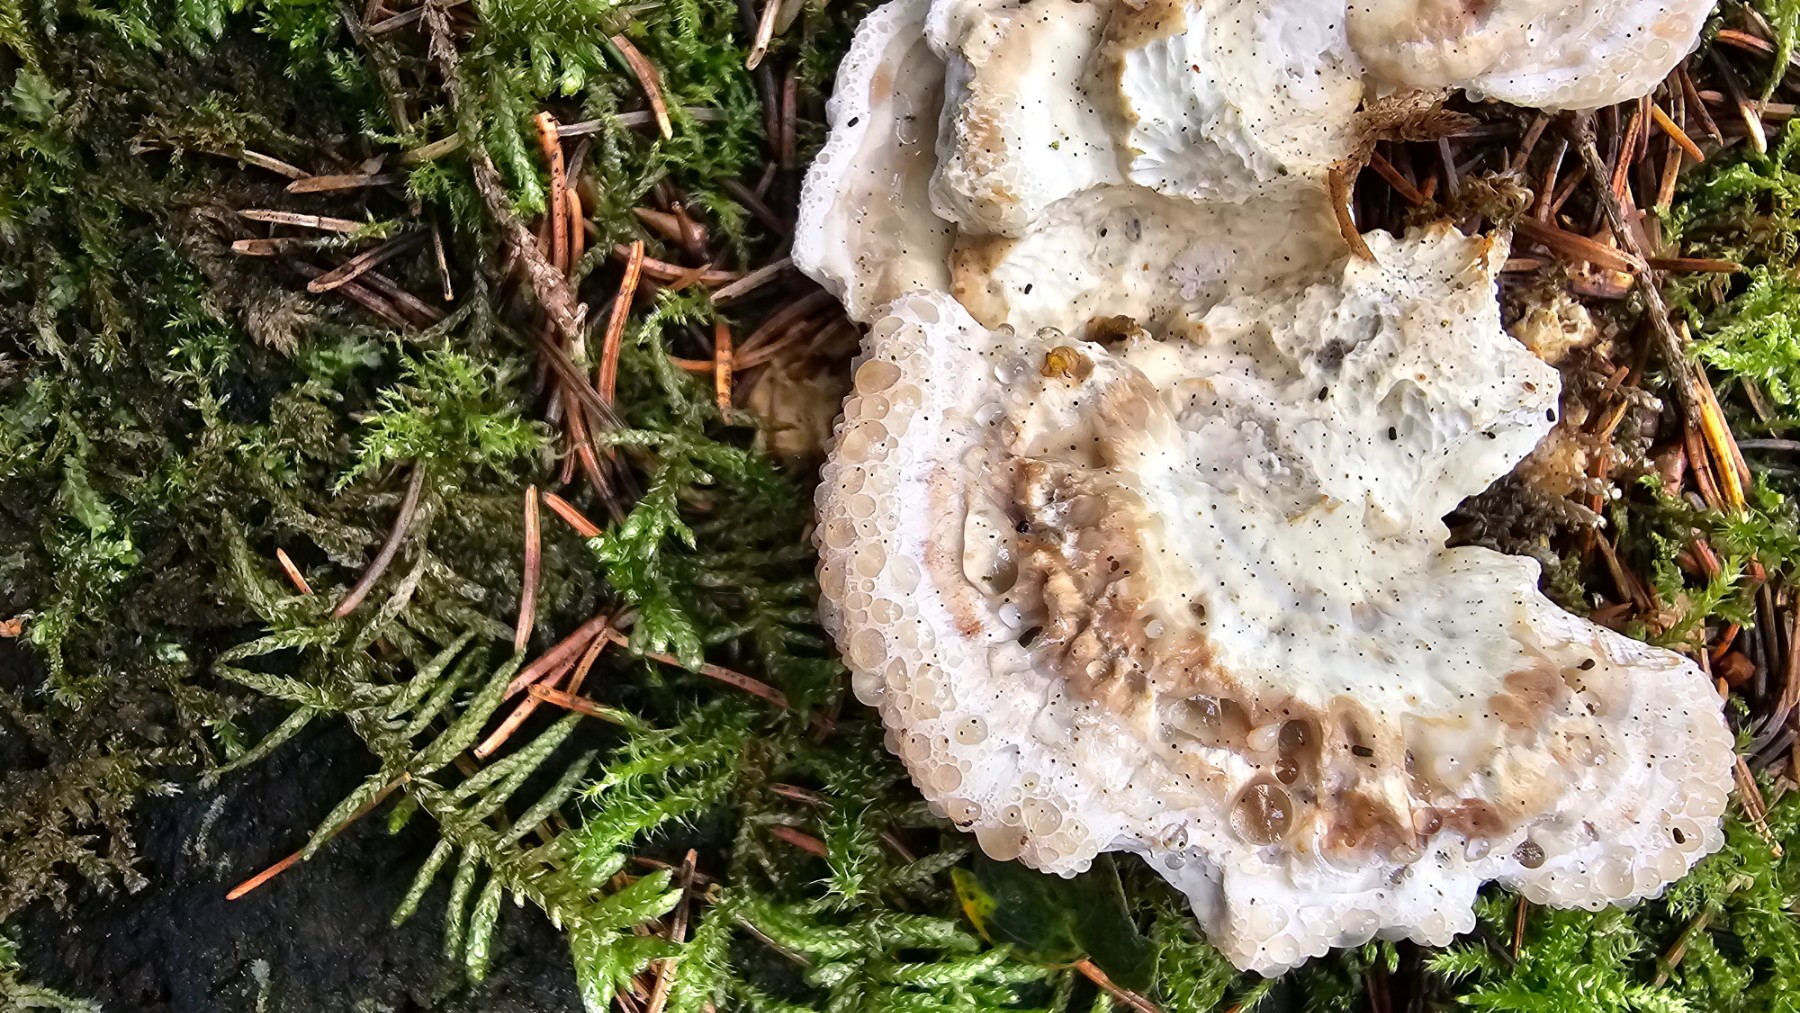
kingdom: Fungi
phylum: Basidiomycota
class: Agaricomycetes
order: Polyporales
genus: Calcipostia
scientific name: Calcipostia guttulata
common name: dråbe-kødporesvamp
